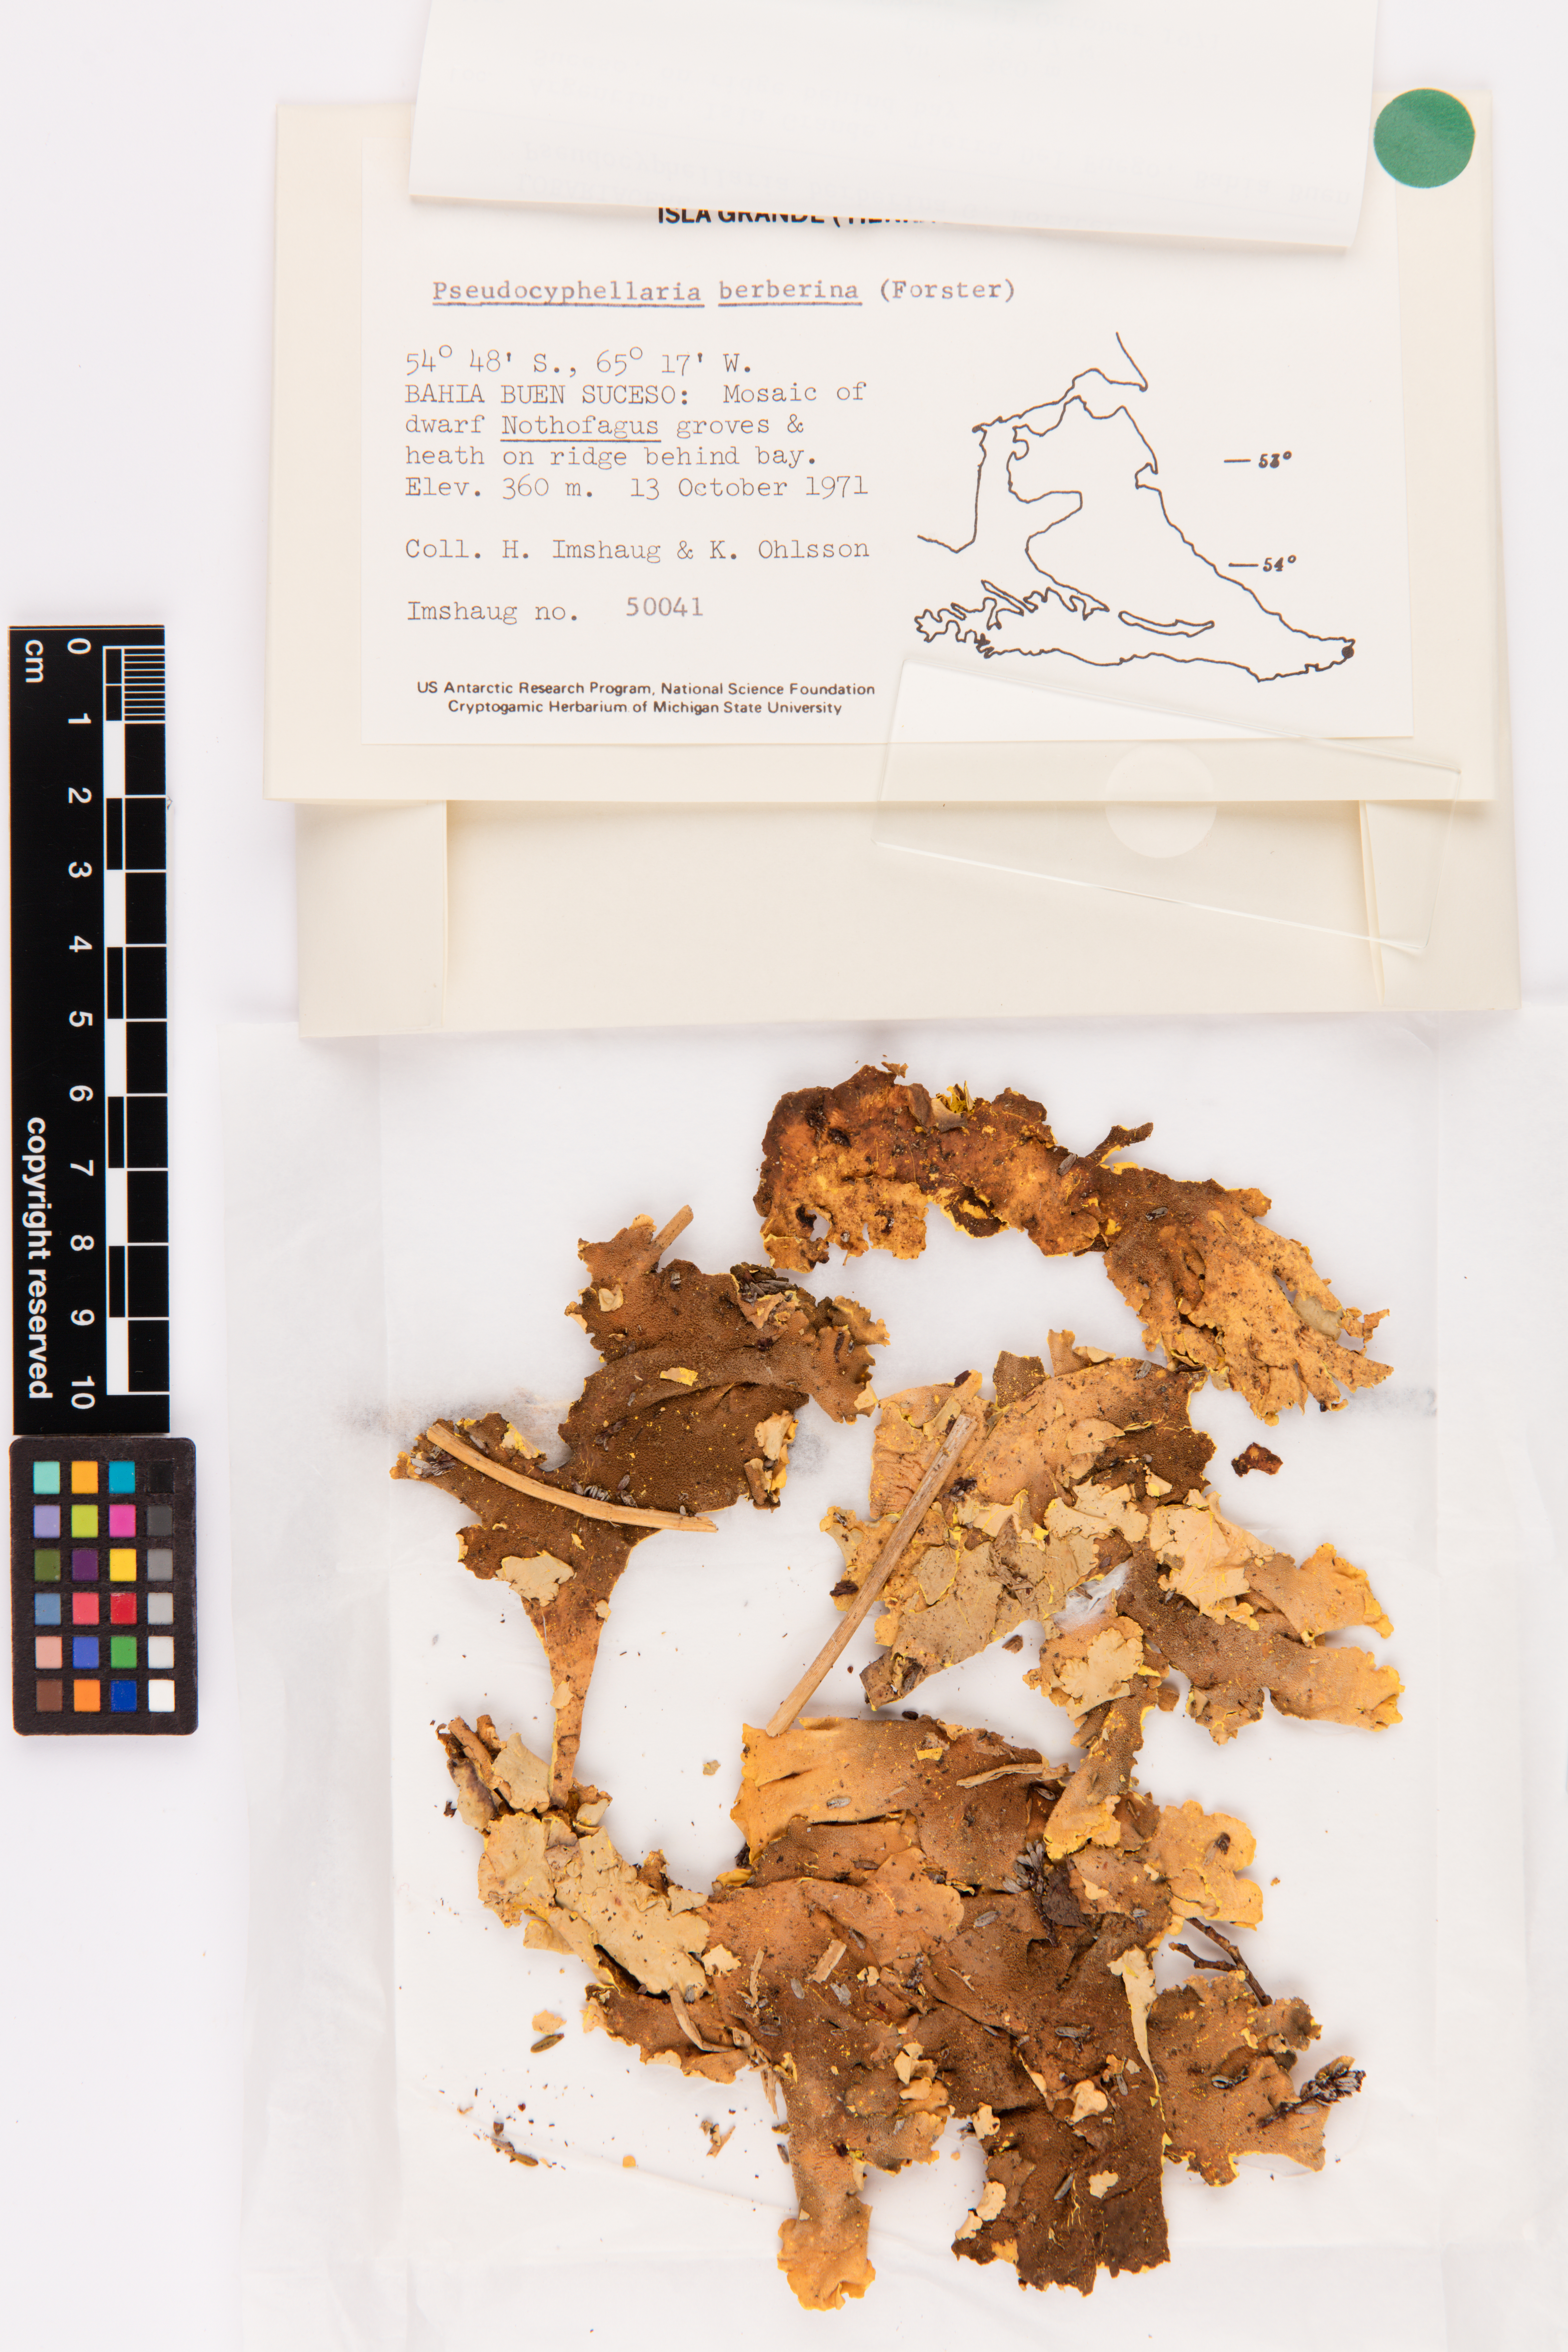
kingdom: Fungi
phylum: Ascomycota
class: Lecanoromycetes
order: Peltigerales
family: Lobariaceae
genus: Podostictina
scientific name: Podostictina berberina
